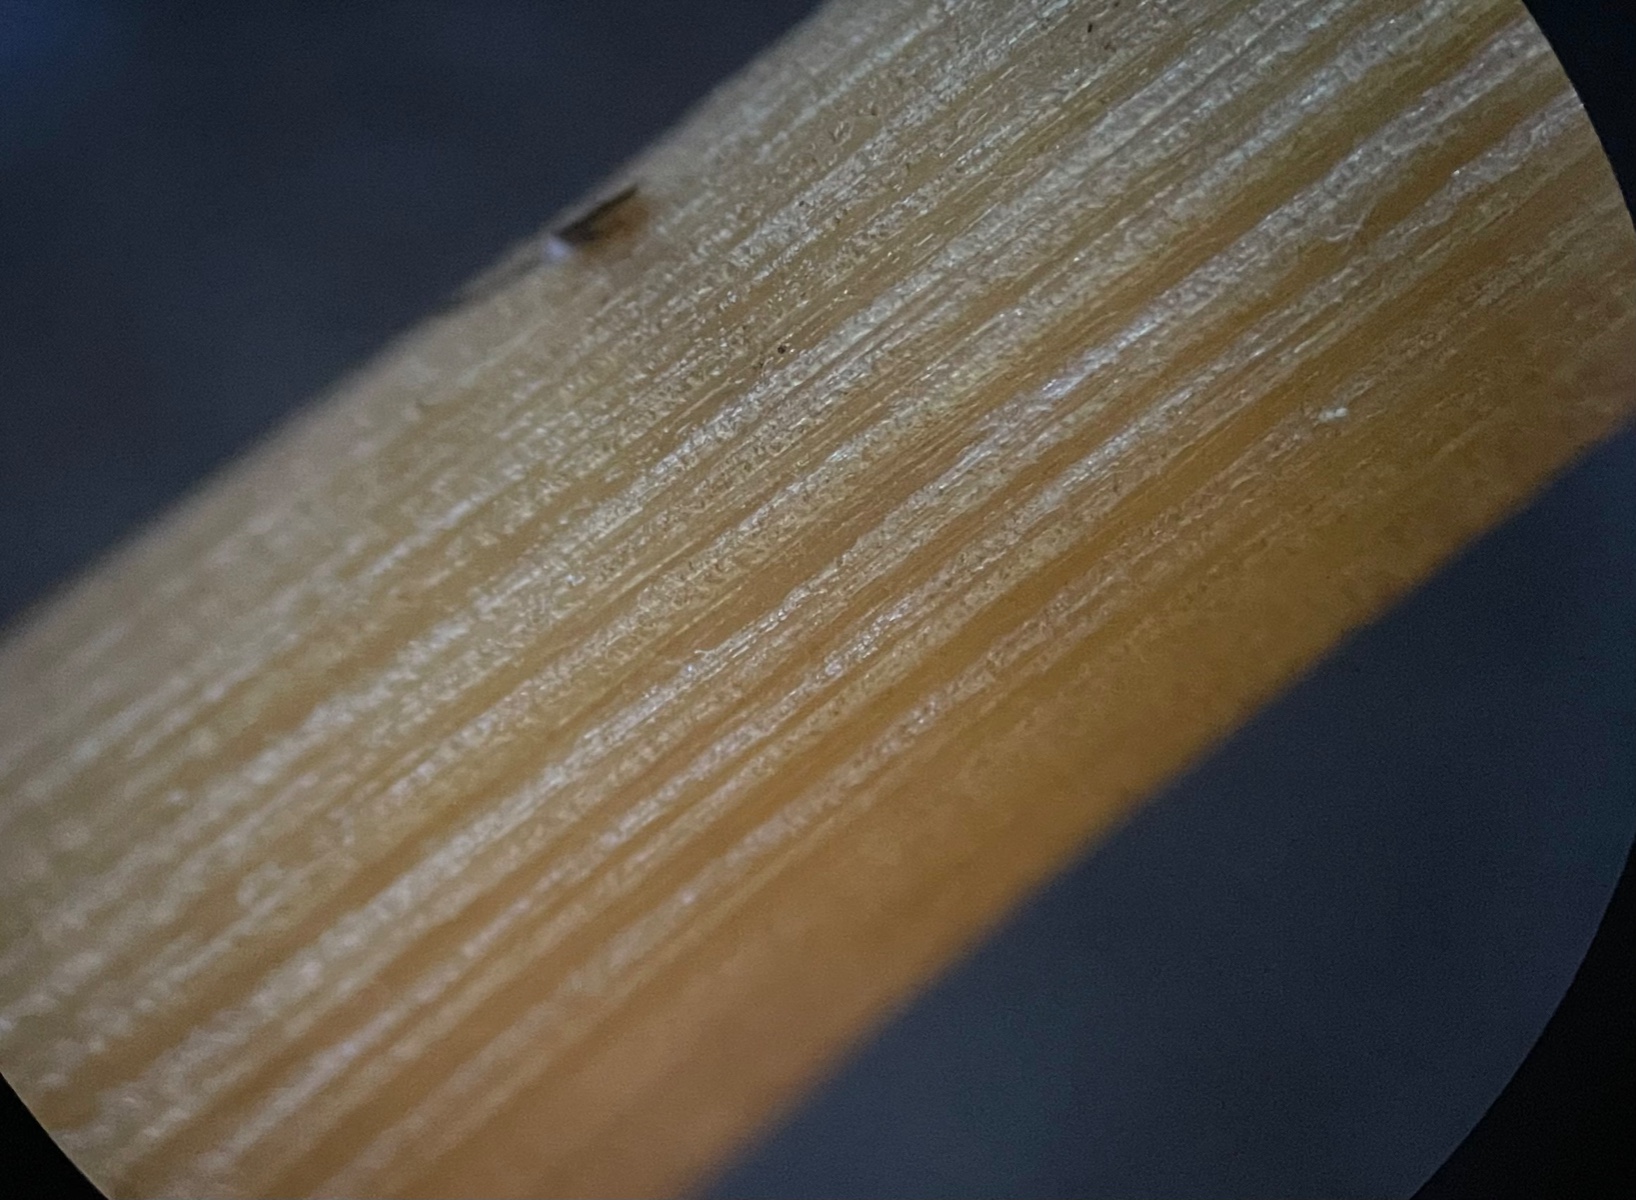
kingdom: Fungi
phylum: Basidiomycota
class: Agaricomycetes
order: Agaricales
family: Bolbitiaceae
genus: Conocybe
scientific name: Conocybe aurea
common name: gylden keglehat
